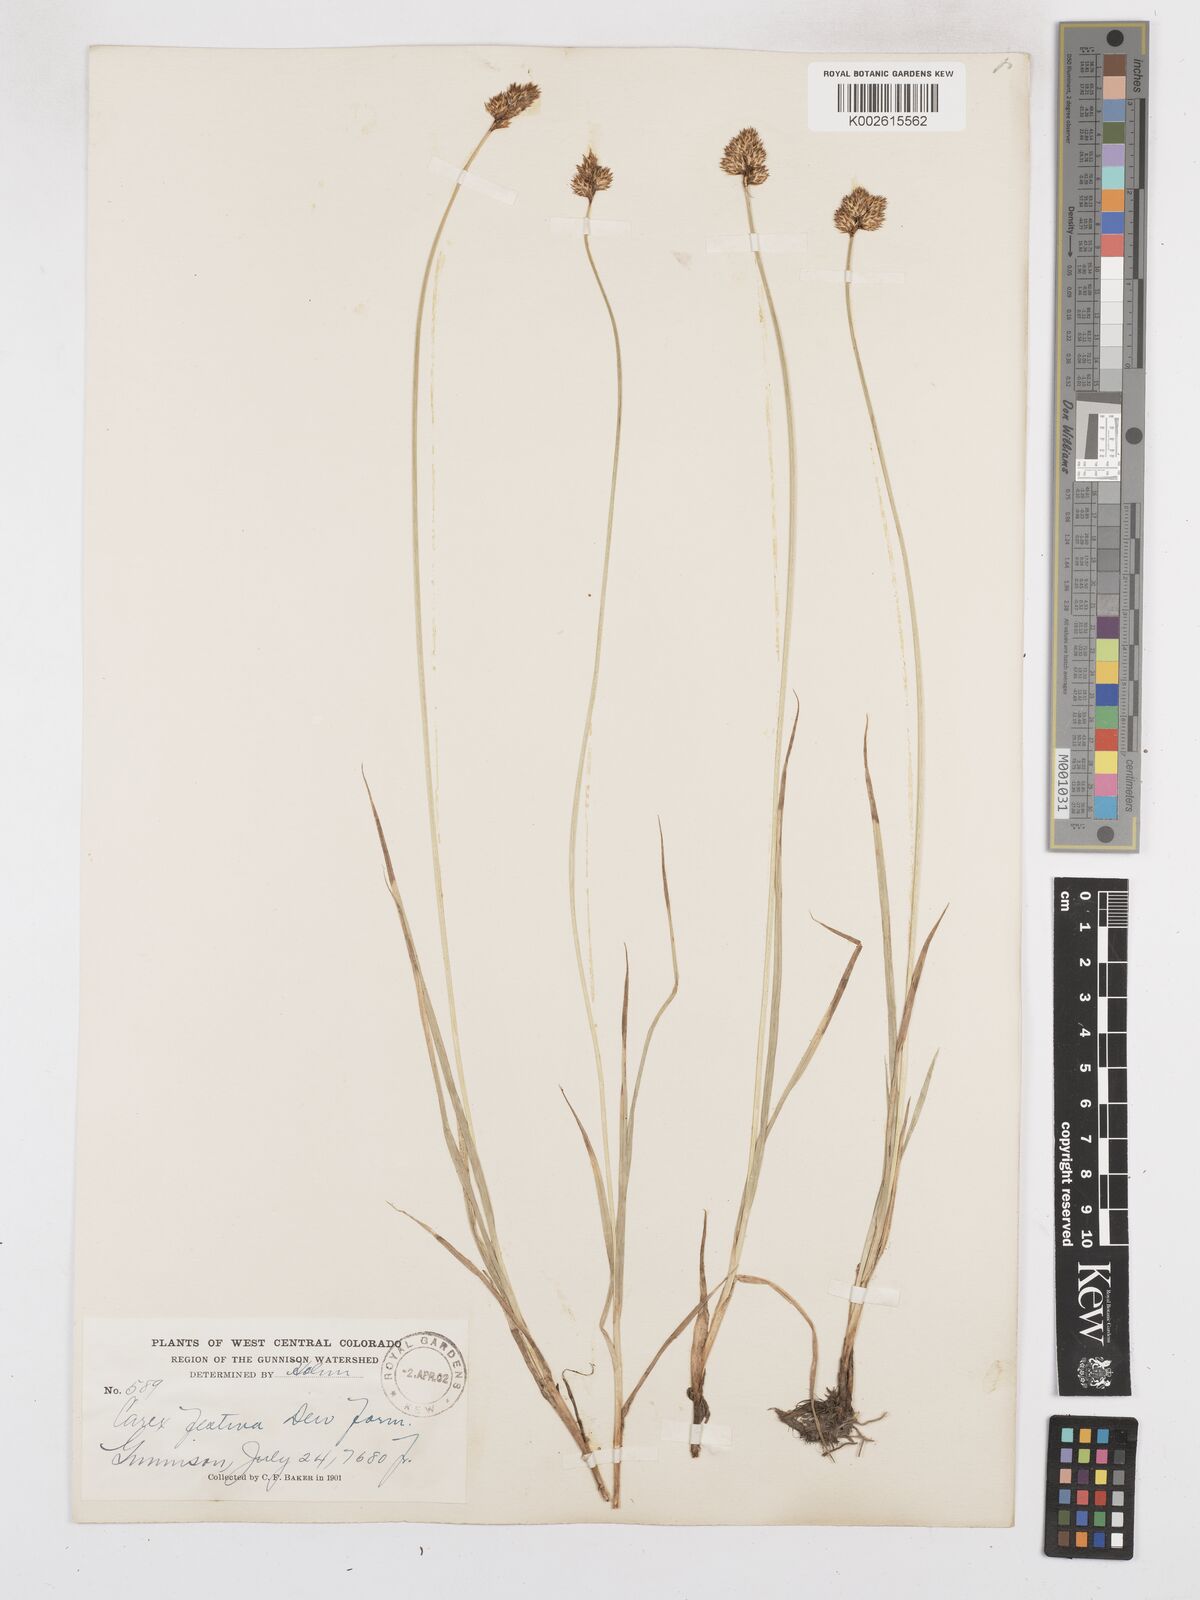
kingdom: Plantae
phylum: Tracheophyta
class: Liliopsida
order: Poales
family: Cyperaceae
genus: Carex
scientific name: Carex macloviana
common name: Falkland island sedge
